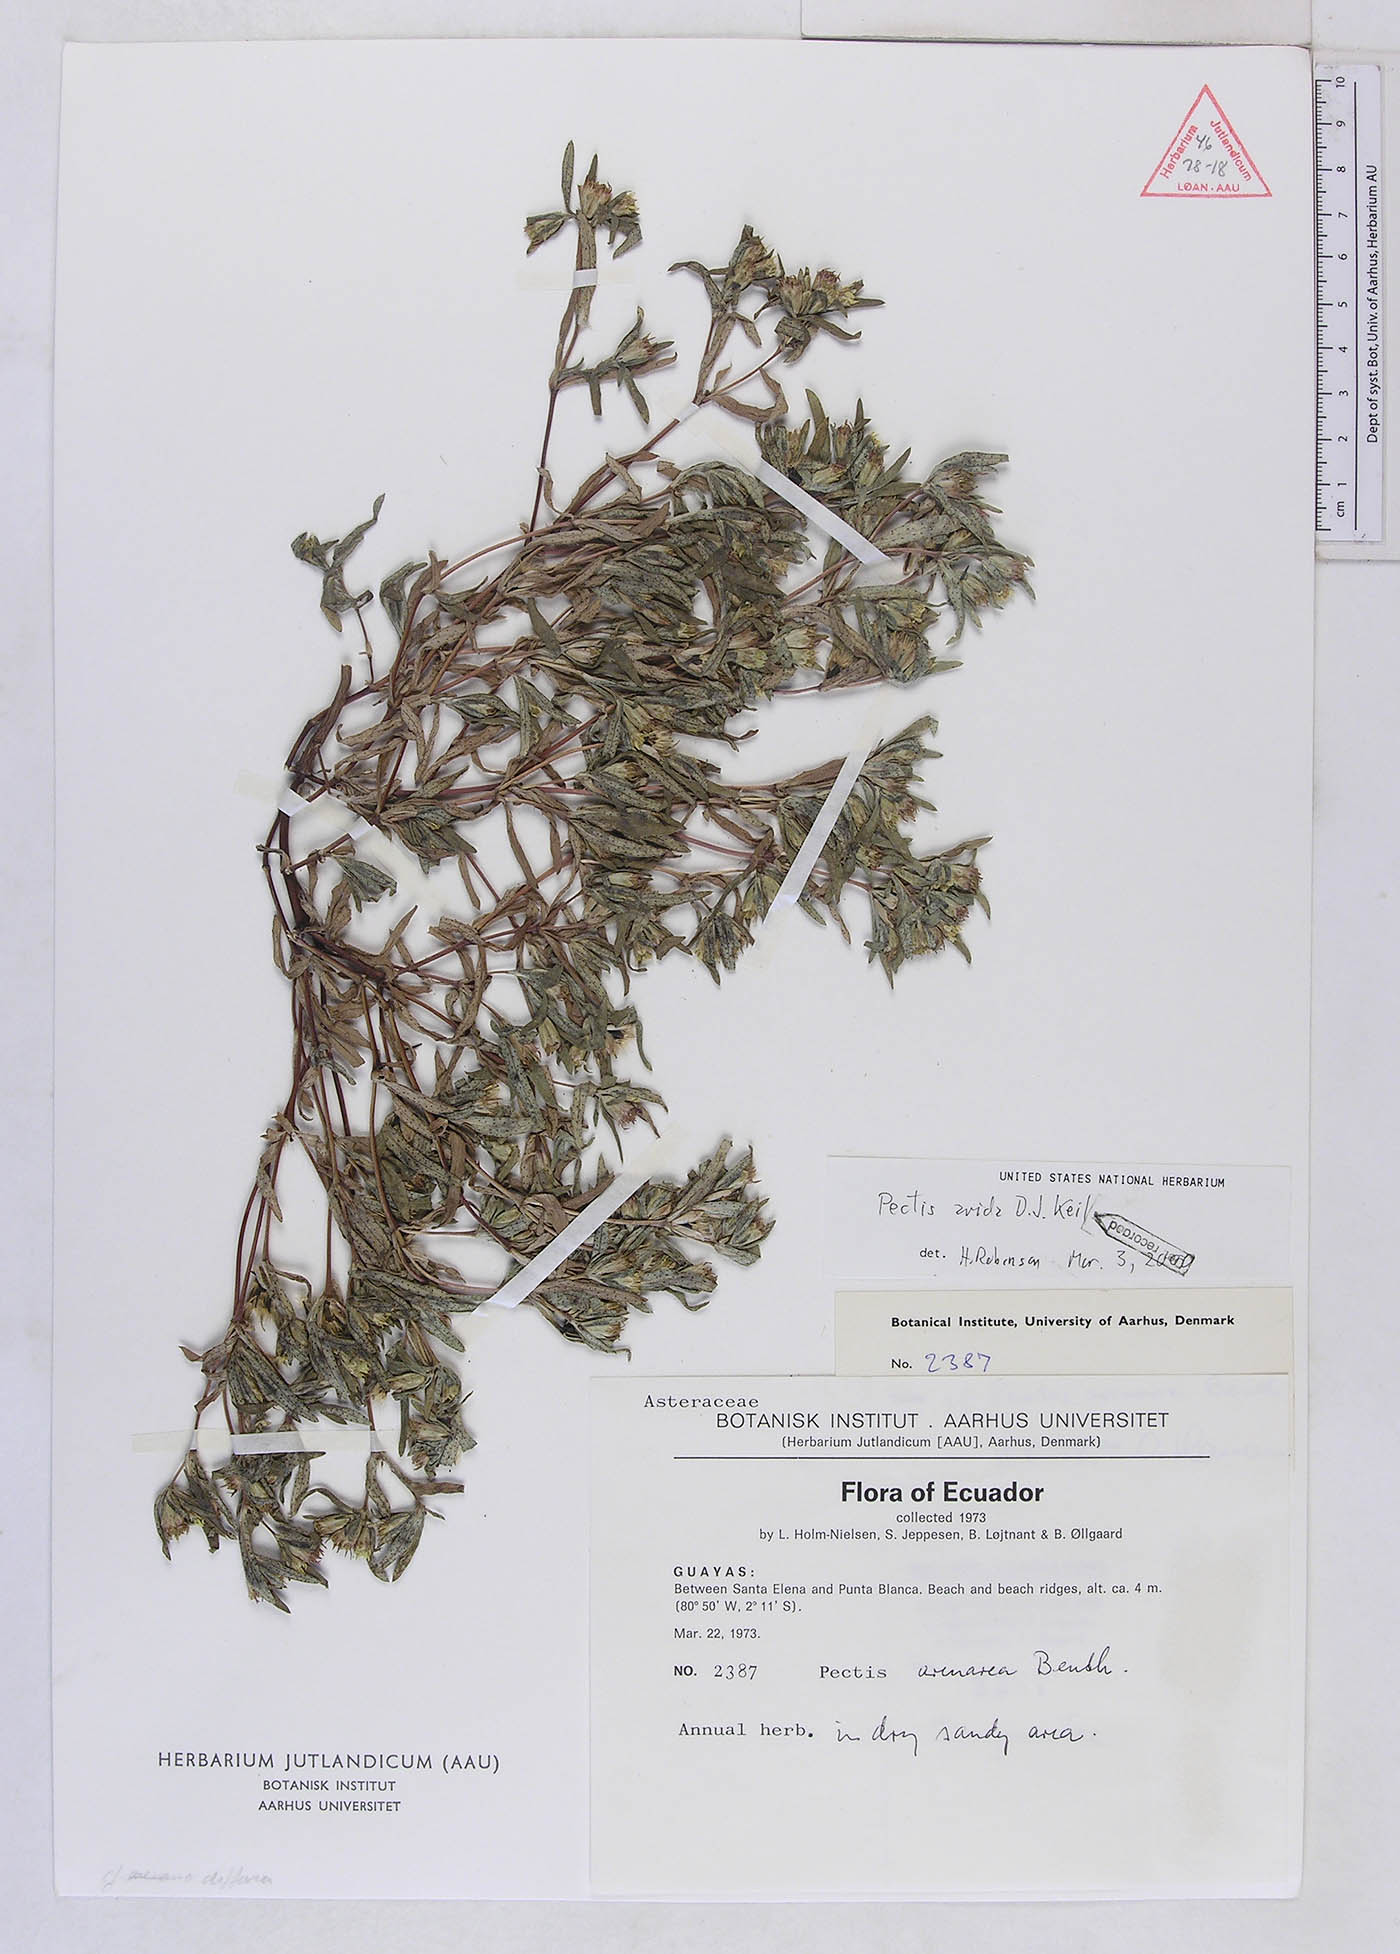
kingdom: Plantae
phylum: Tracheophyta
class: Magnoliopsida
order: Asterales
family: Asteraceae
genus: Pectis
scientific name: Pectis arida
